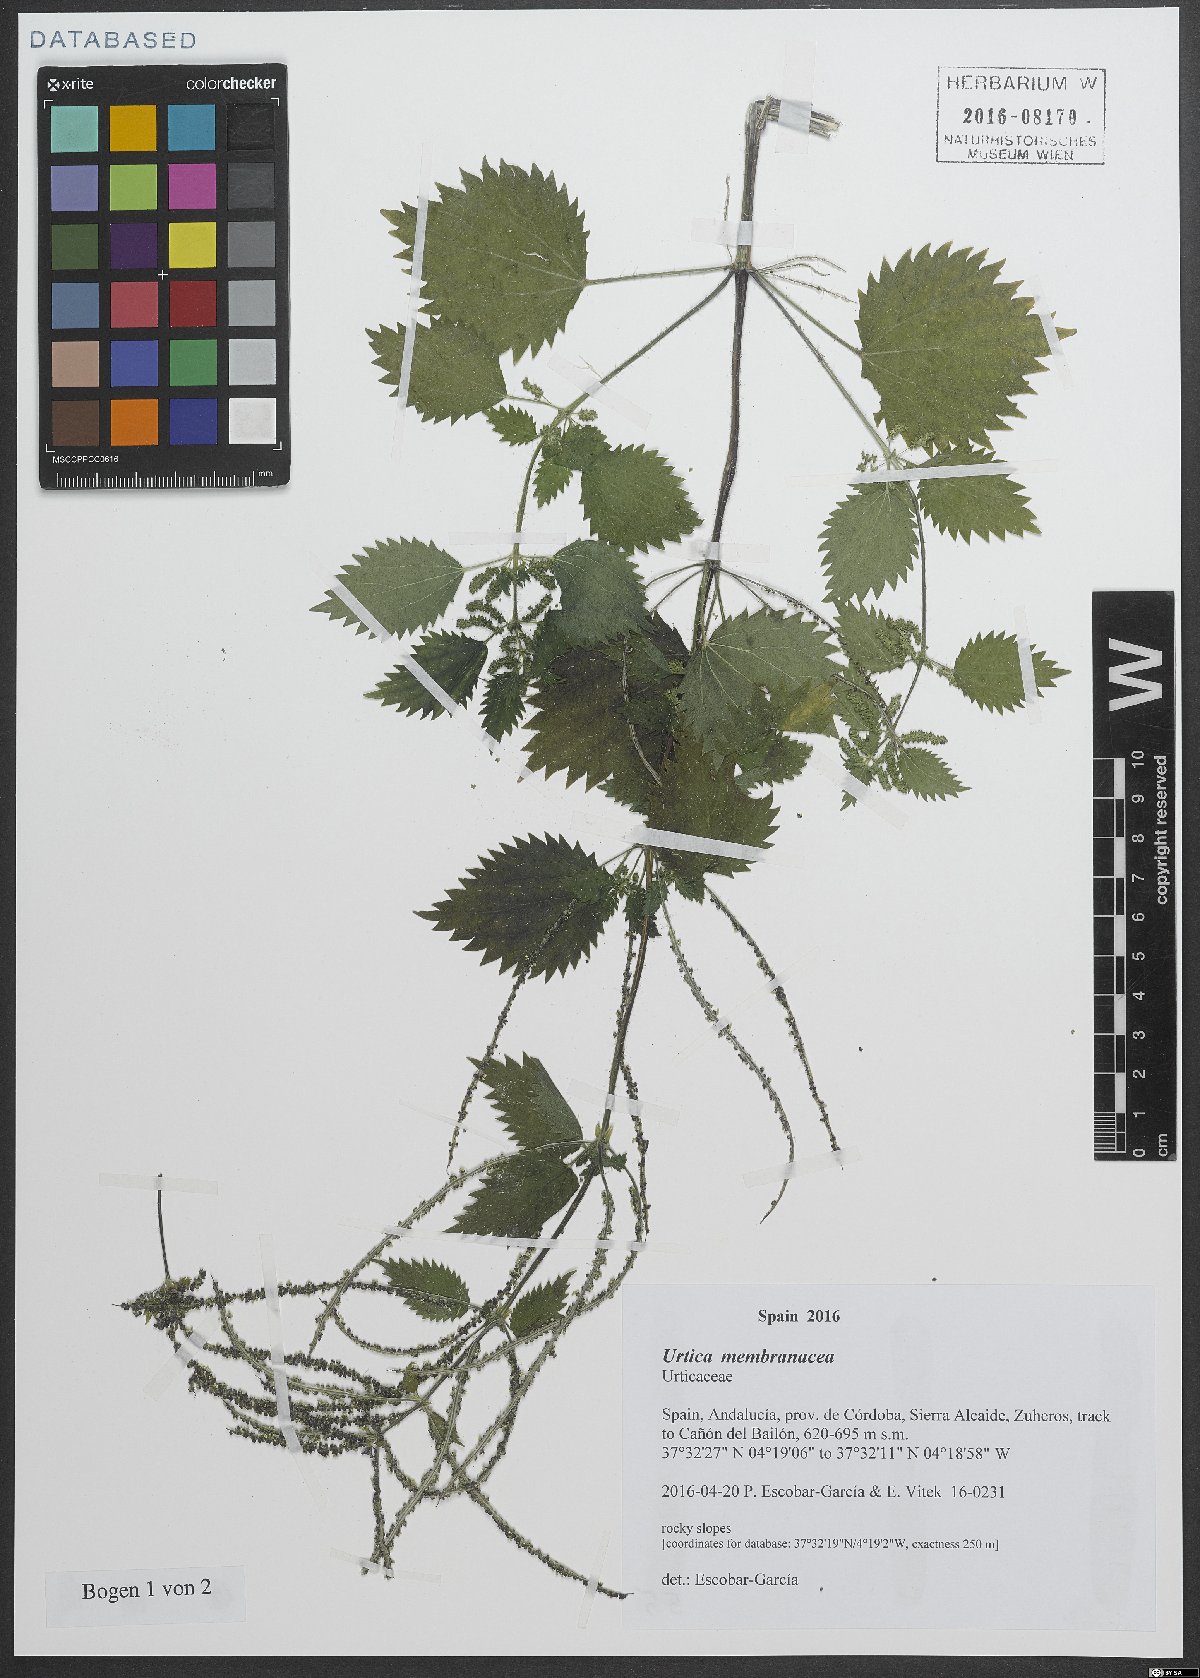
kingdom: Plantae
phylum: Tracheophyta
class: Magnoliopsida
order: Rosales
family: Urticaceae
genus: Urtica
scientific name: Urtica membranacea
